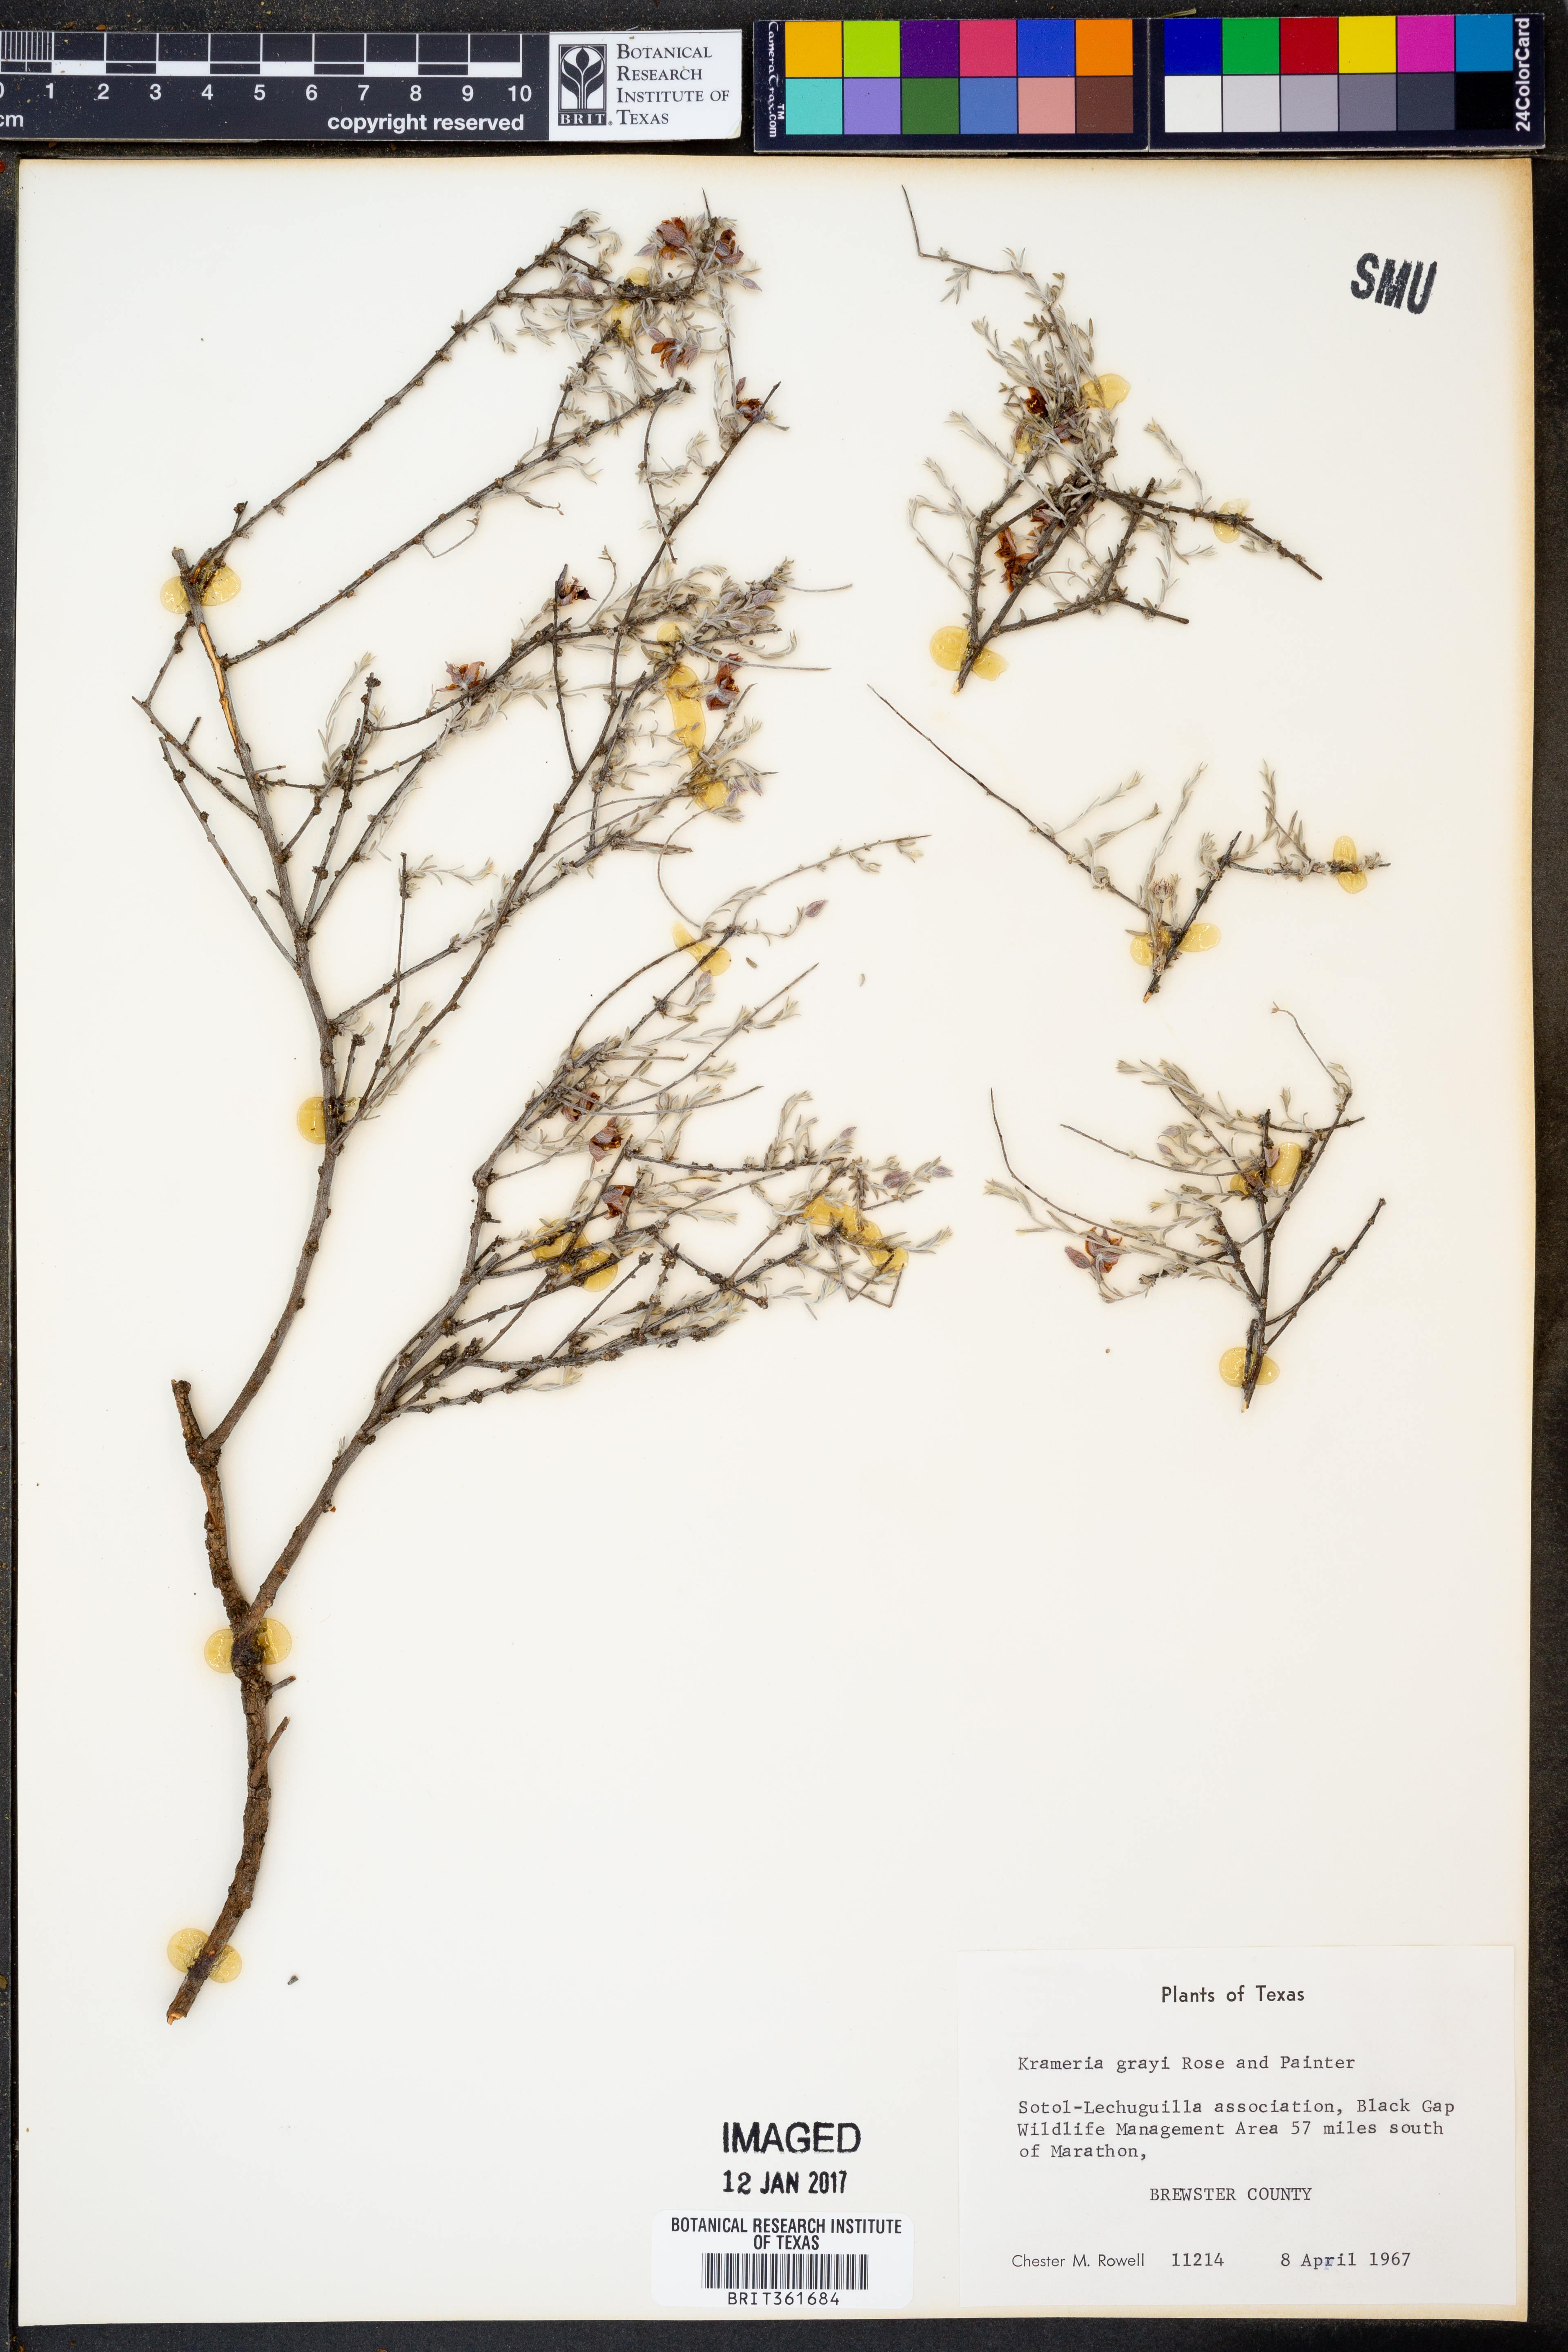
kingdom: Plantae
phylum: Tracheophyta
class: Magnoliopsida
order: Zygophyllales
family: Krameriaceae
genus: Krameria
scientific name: Krameria bicolor
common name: White ratany
